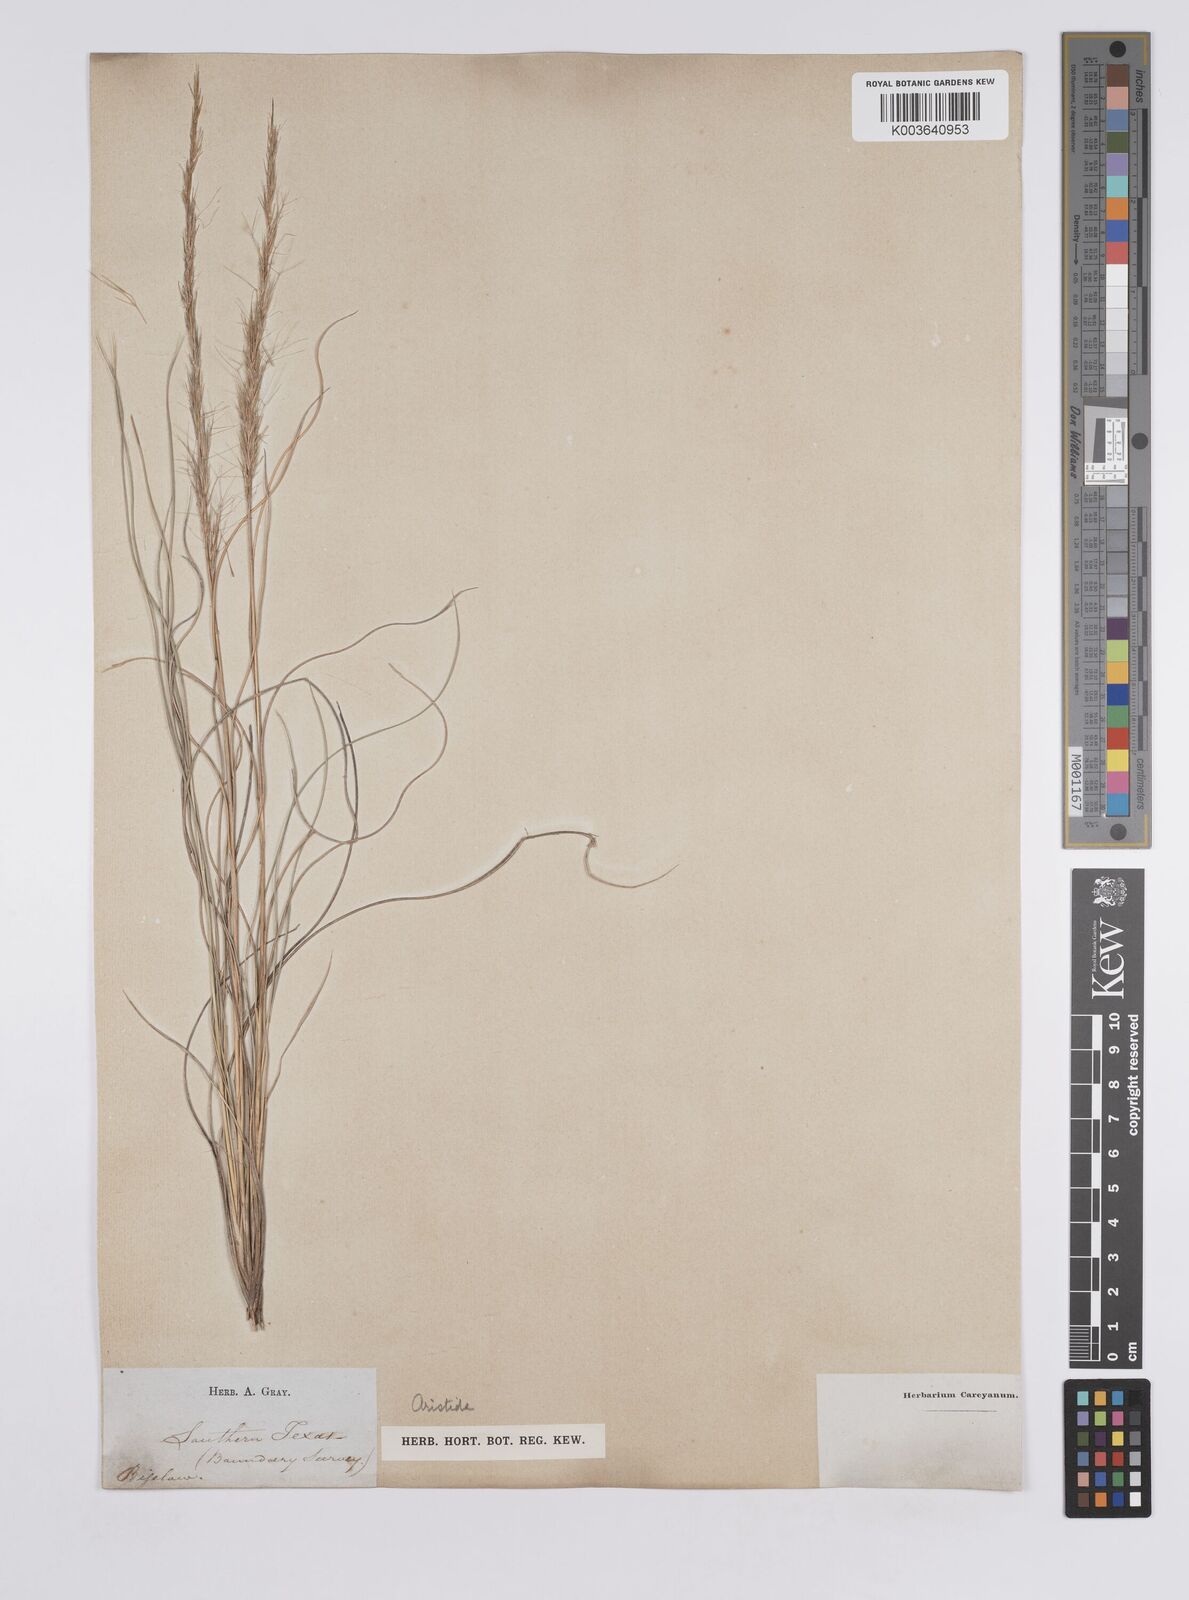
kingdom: Plantae
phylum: Tracheophyta
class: Liliopsida
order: Poales
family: Poaceae
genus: Aristida
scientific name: Aristida purpurea
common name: Purple threeawn
